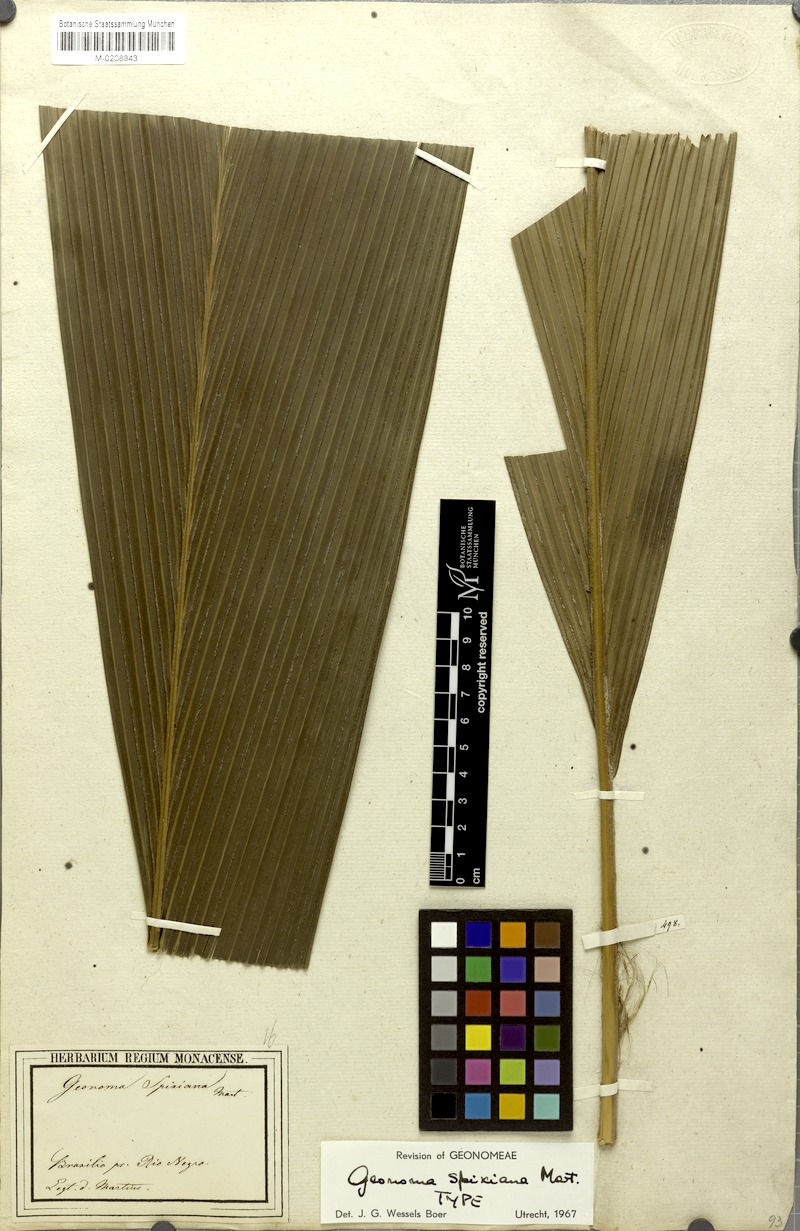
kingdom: Plantae
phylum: Tracheophyta
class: Liliopsida
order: Arecales
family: Arecaceae
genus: Geonoma
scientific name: Geonoma maxima
